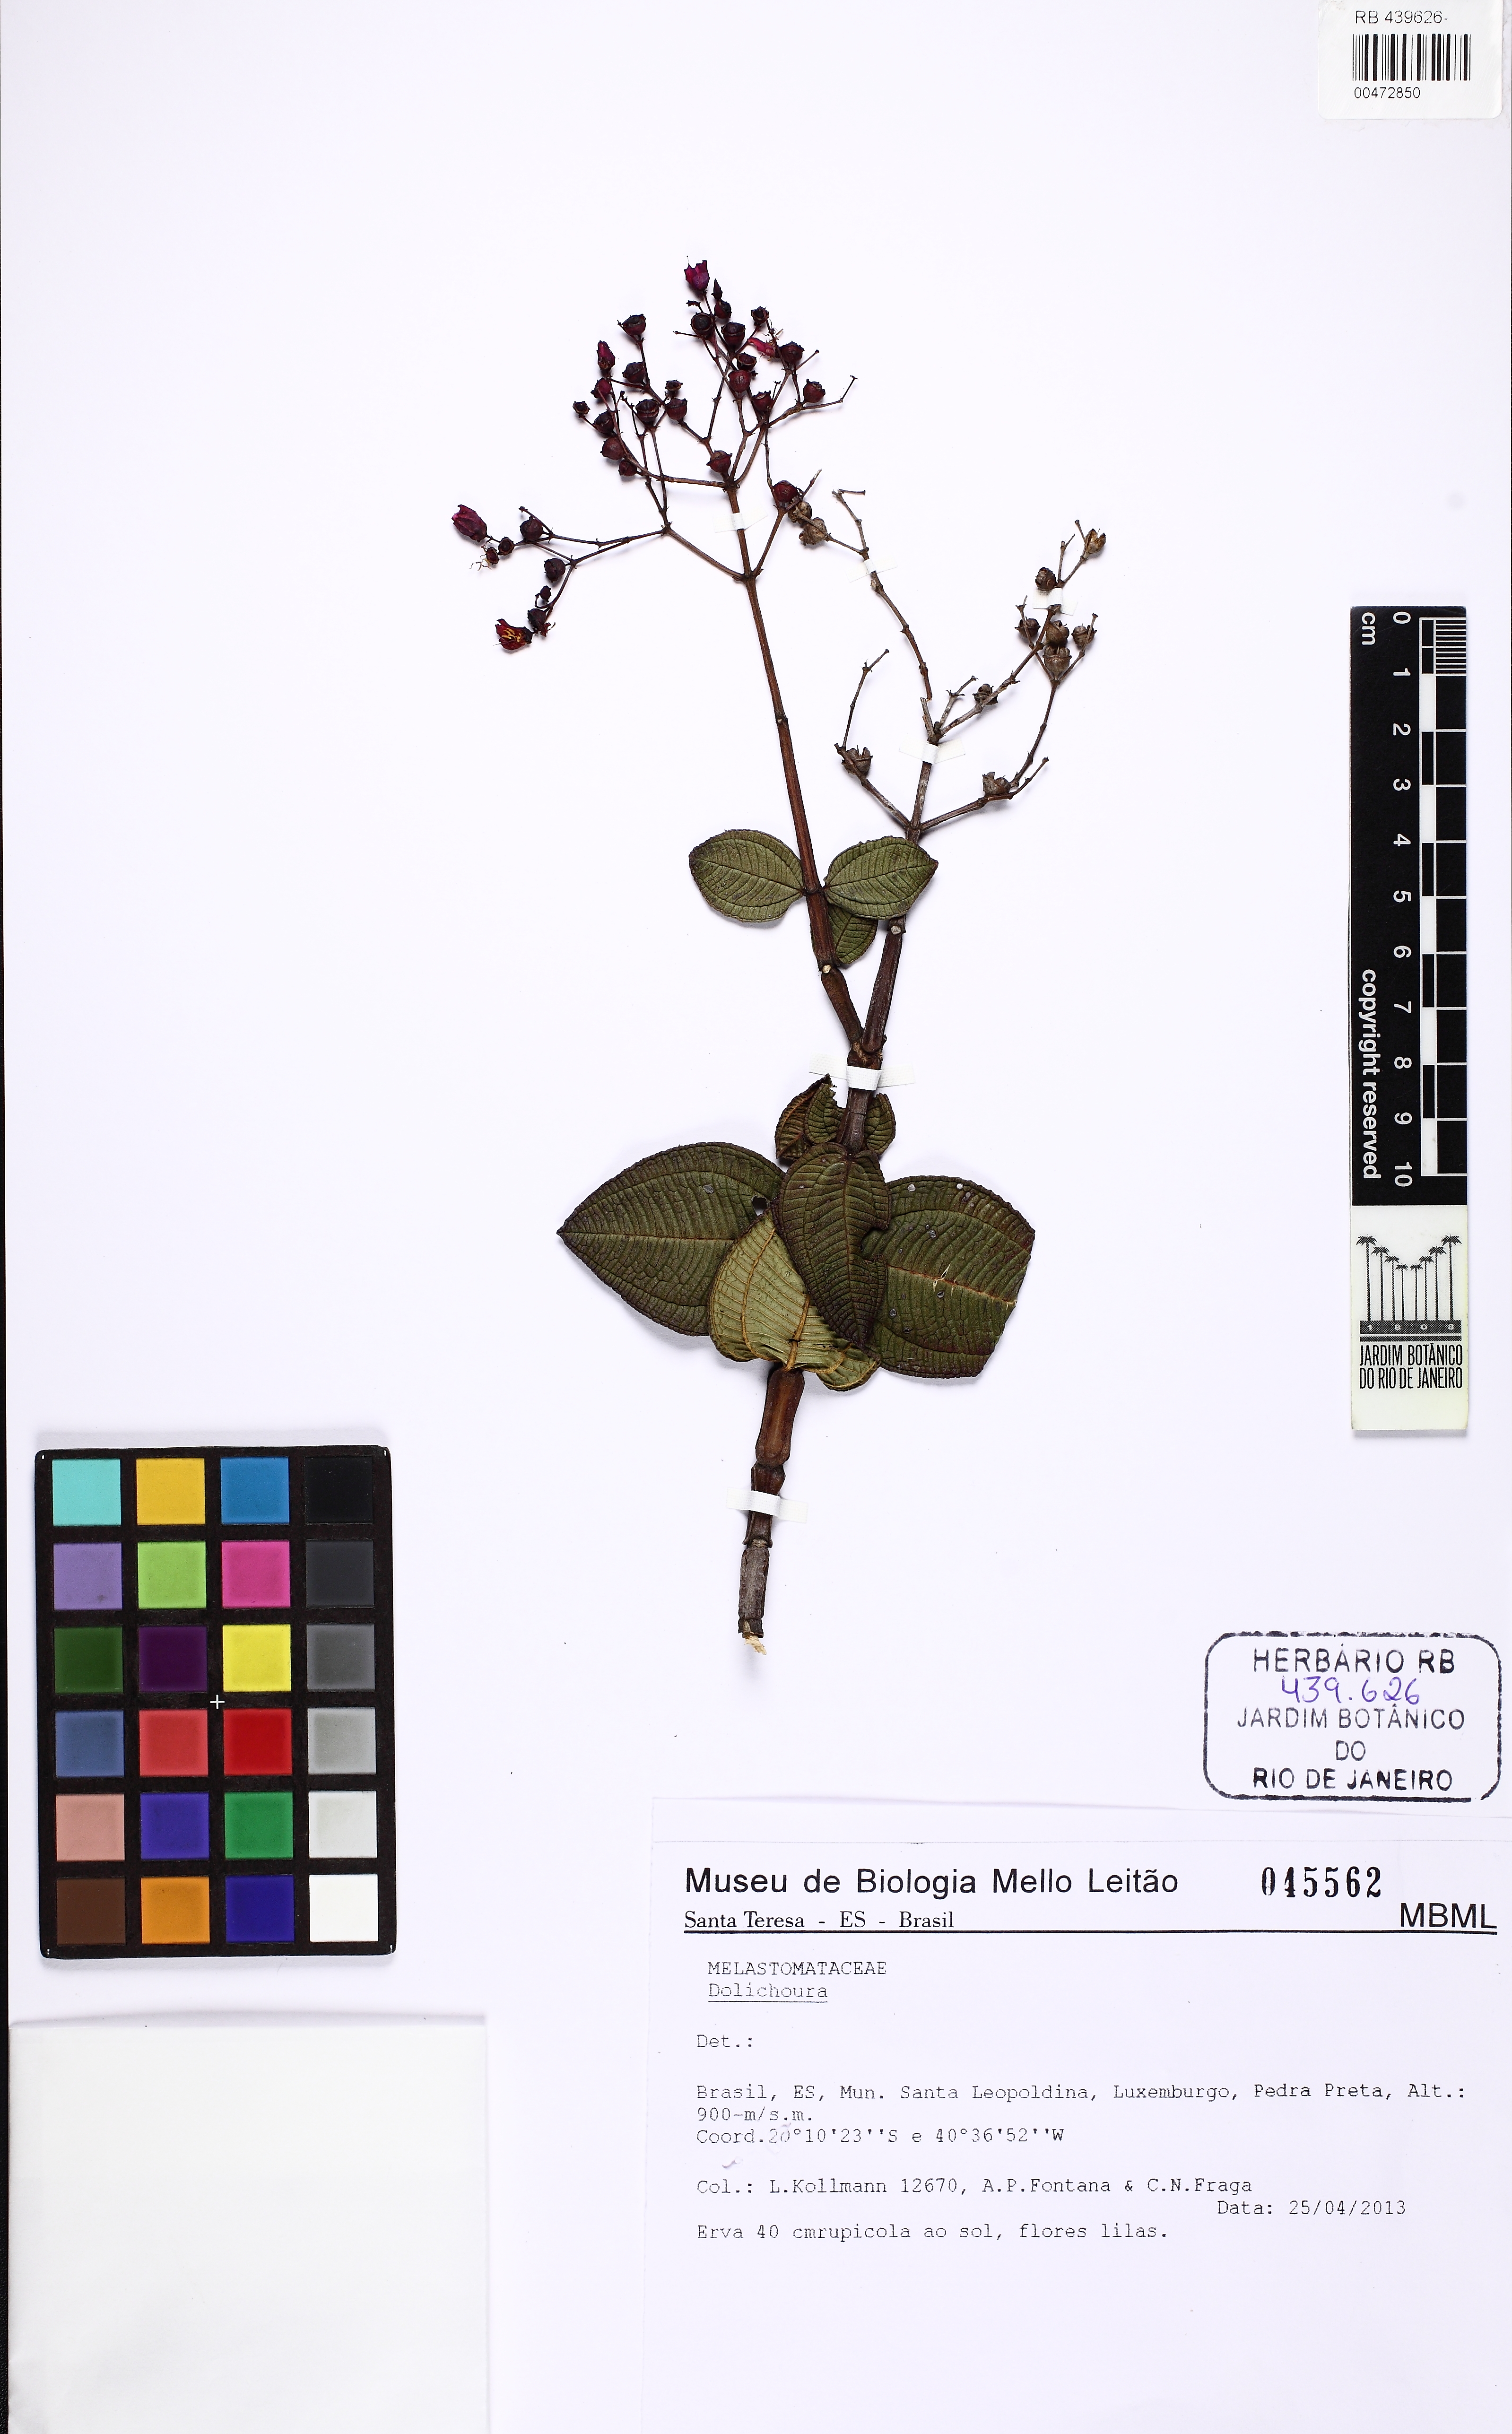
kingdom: Plantae
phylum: Tracheophyta
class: Magnoliopsida
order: Myrtales
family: Melastomataceae
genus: Huberia
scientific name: Huberia kollmannii
